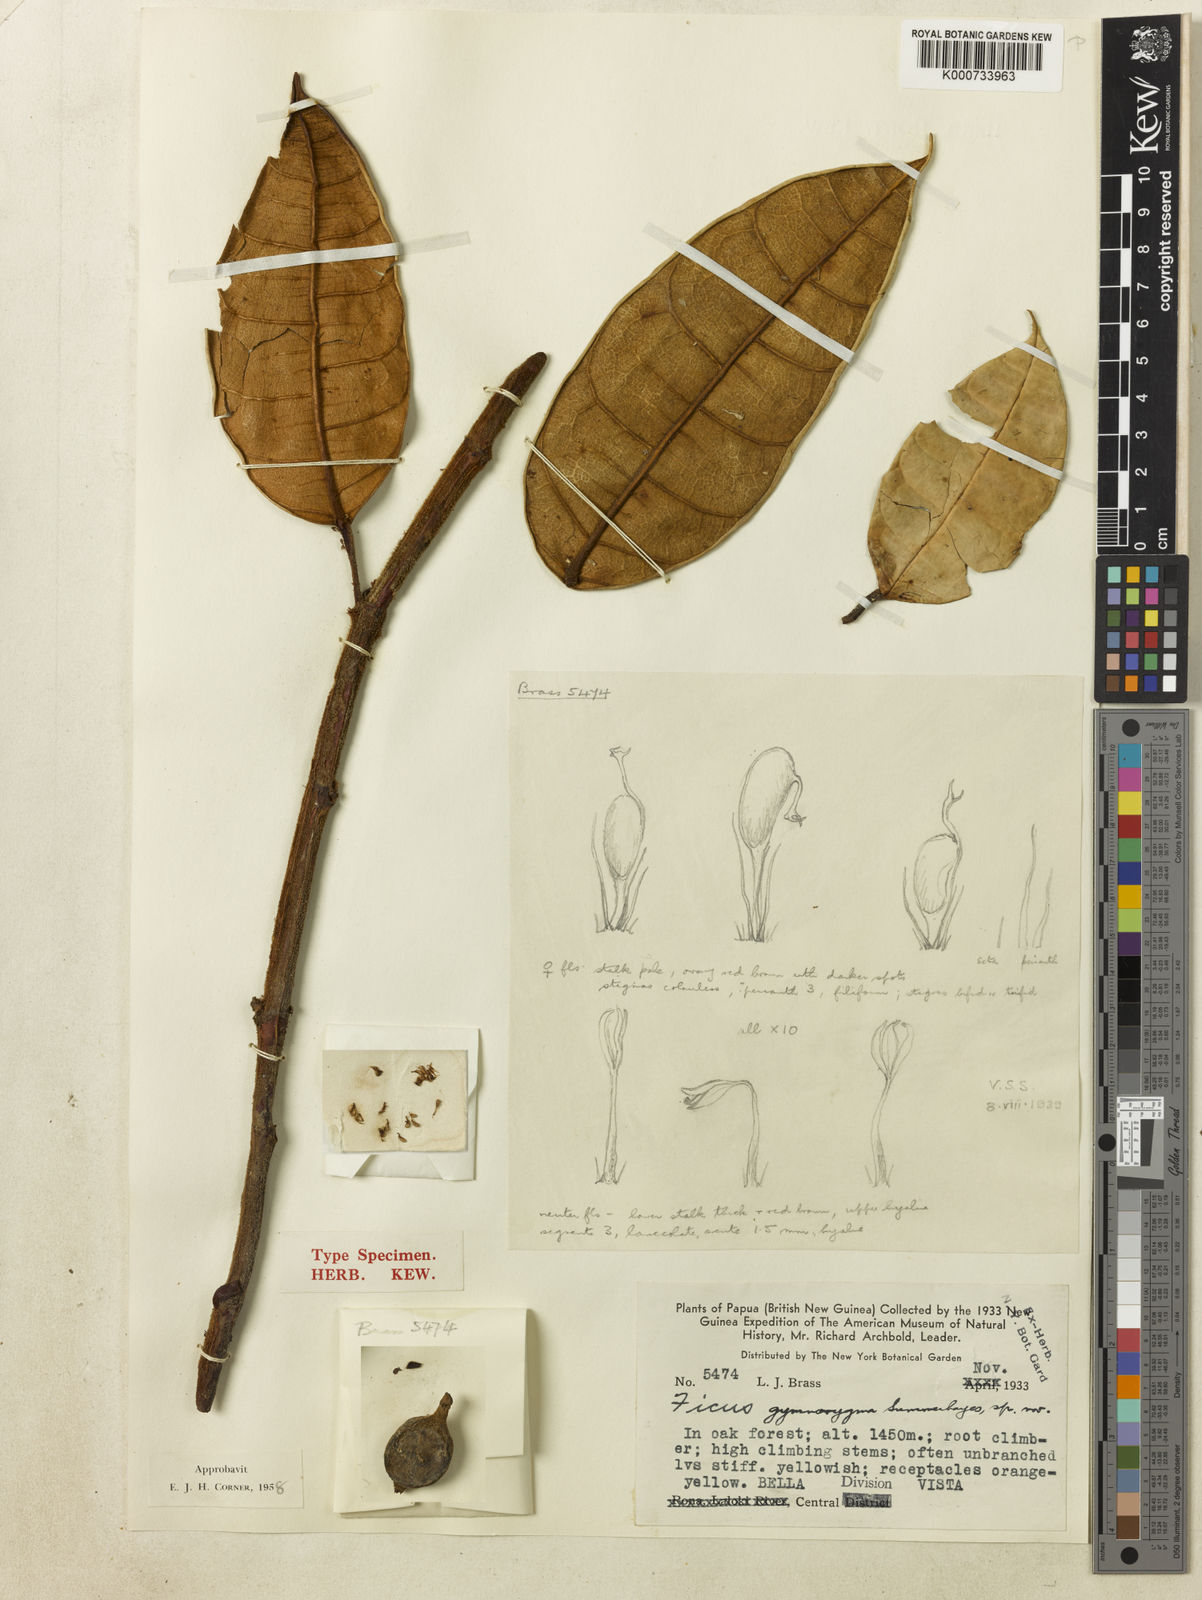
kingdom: Plantae
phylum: Tracheophyta
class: Magnoliopsida
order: Rosales
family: Moraceae
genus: Ficus
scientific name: Ficus gymnorygma
